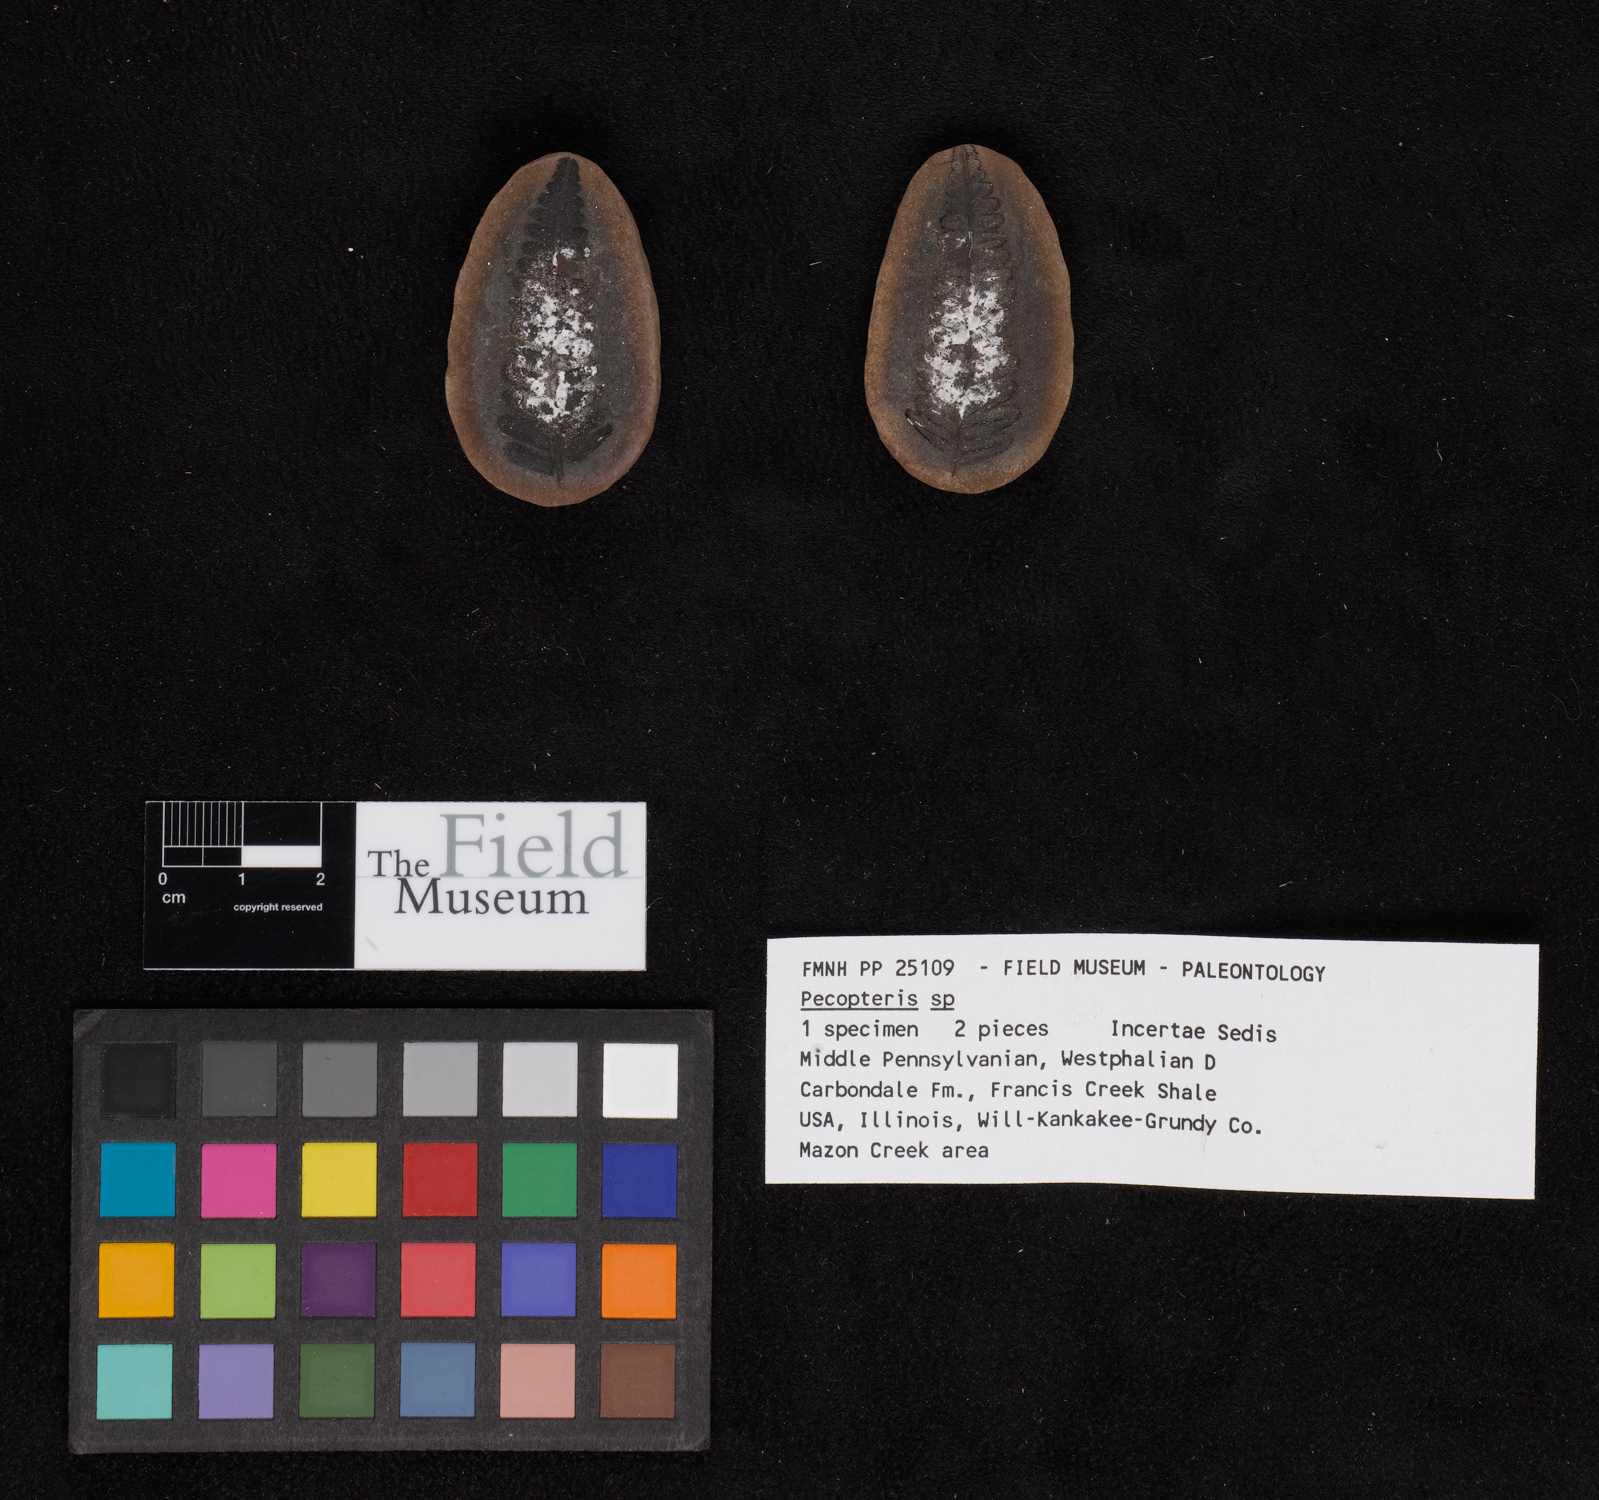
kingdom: Plantae
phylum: Tracheophyta
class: Polypodiopsida
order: Marattiales
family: Asterothecaceae
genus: Pecopteris
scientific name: Pecopteris
